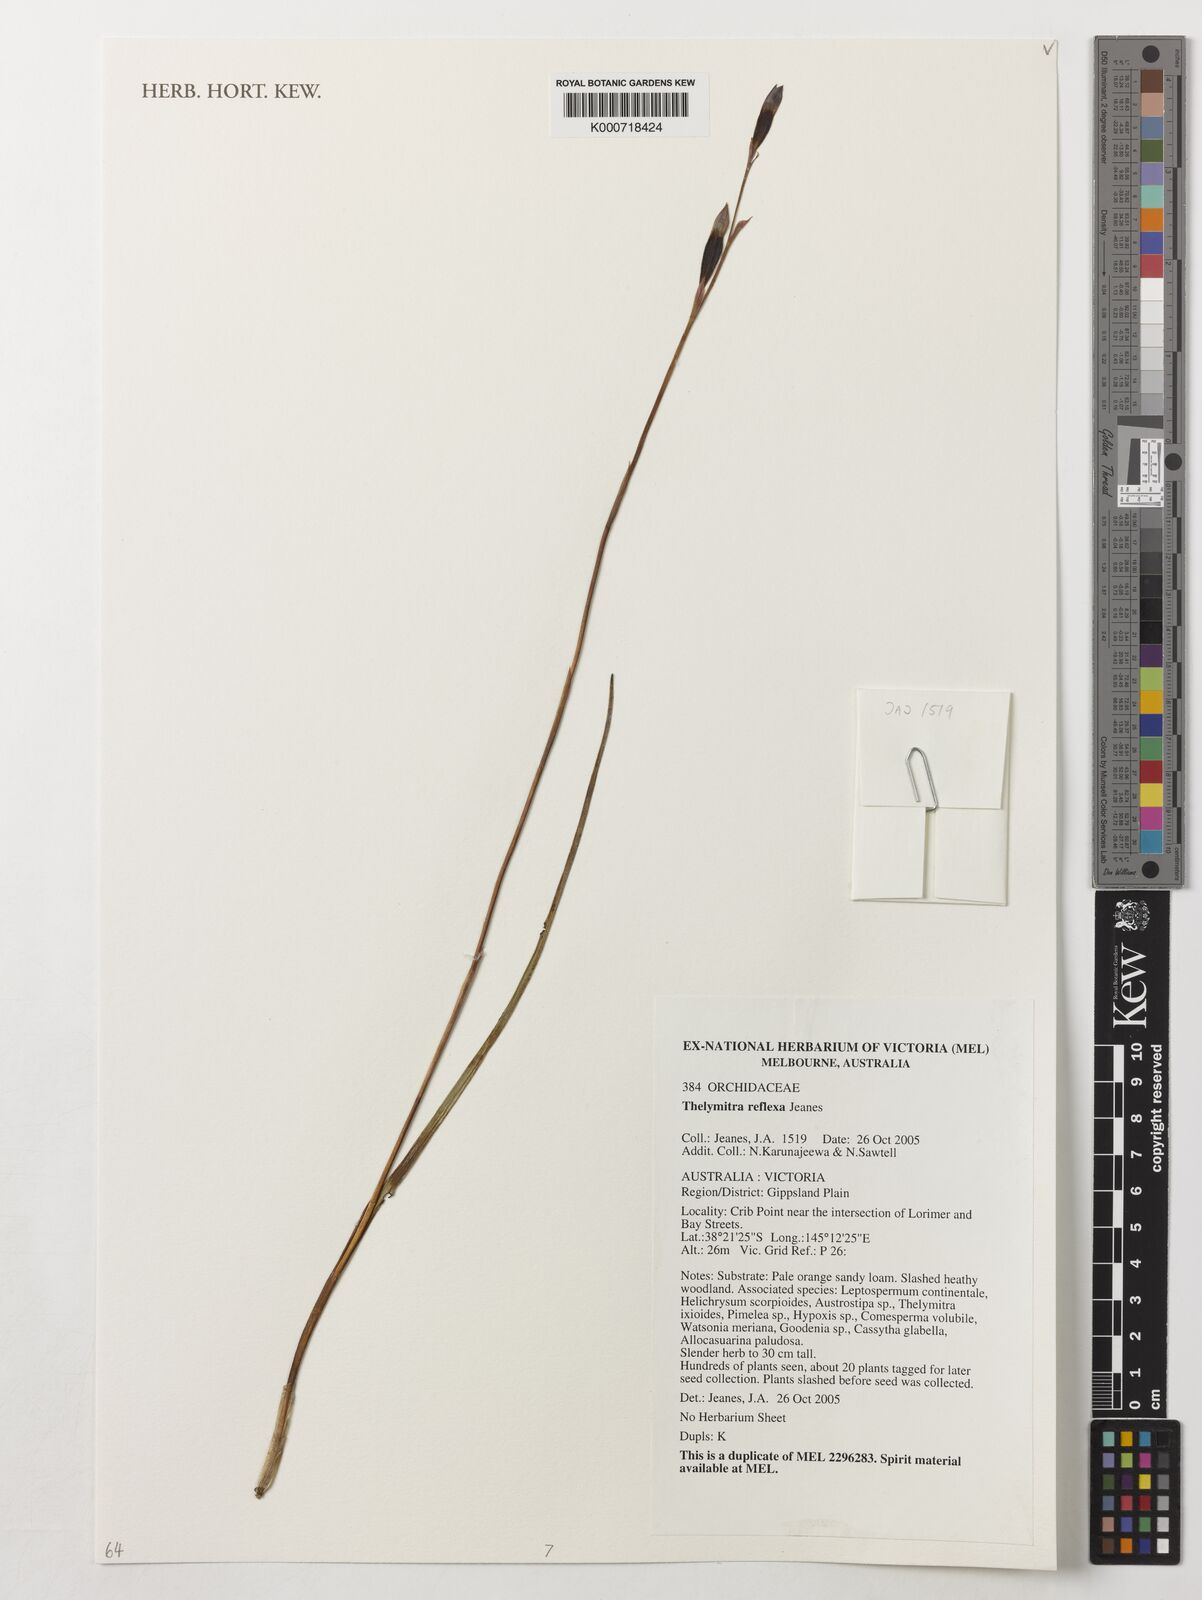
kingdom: Plantae
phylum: Tracheophyta
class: Liliopsida
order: Asparagales
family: Orchidaceae
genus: Thelymitra
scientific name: Thelymitra reflexa
